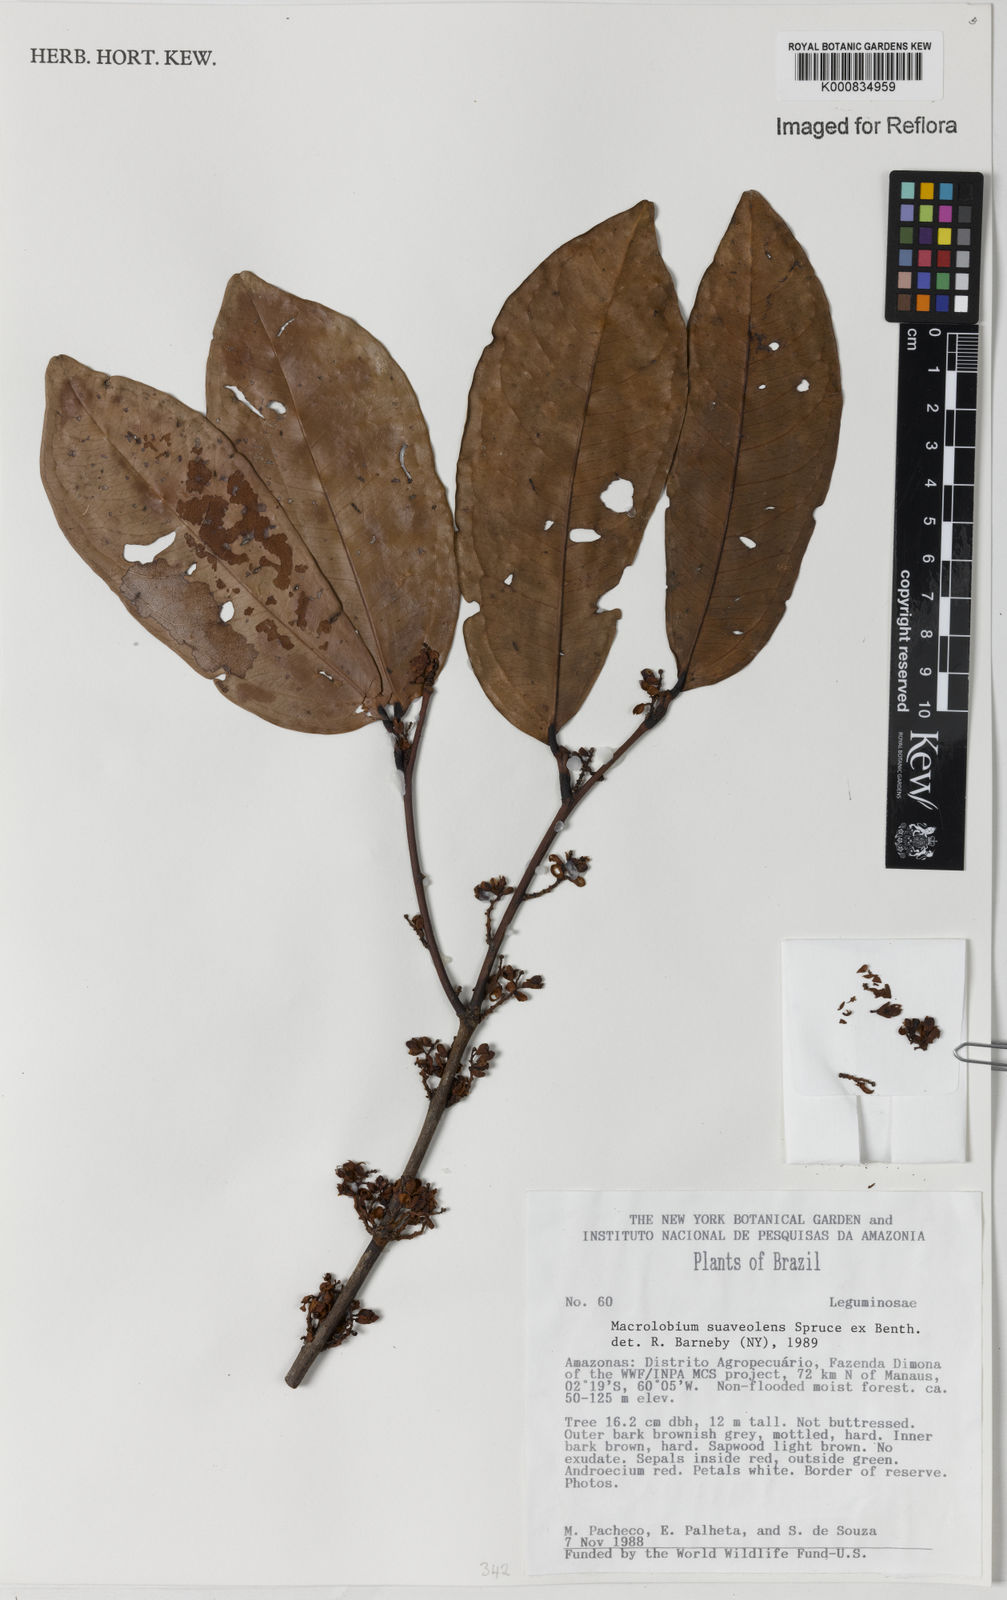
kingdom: Plantae
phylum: Tracheophyta
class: Magnoliopsida
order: Fabales
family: Fabaceae
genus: Macrolobium
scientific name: Macrolobium suaveolens
